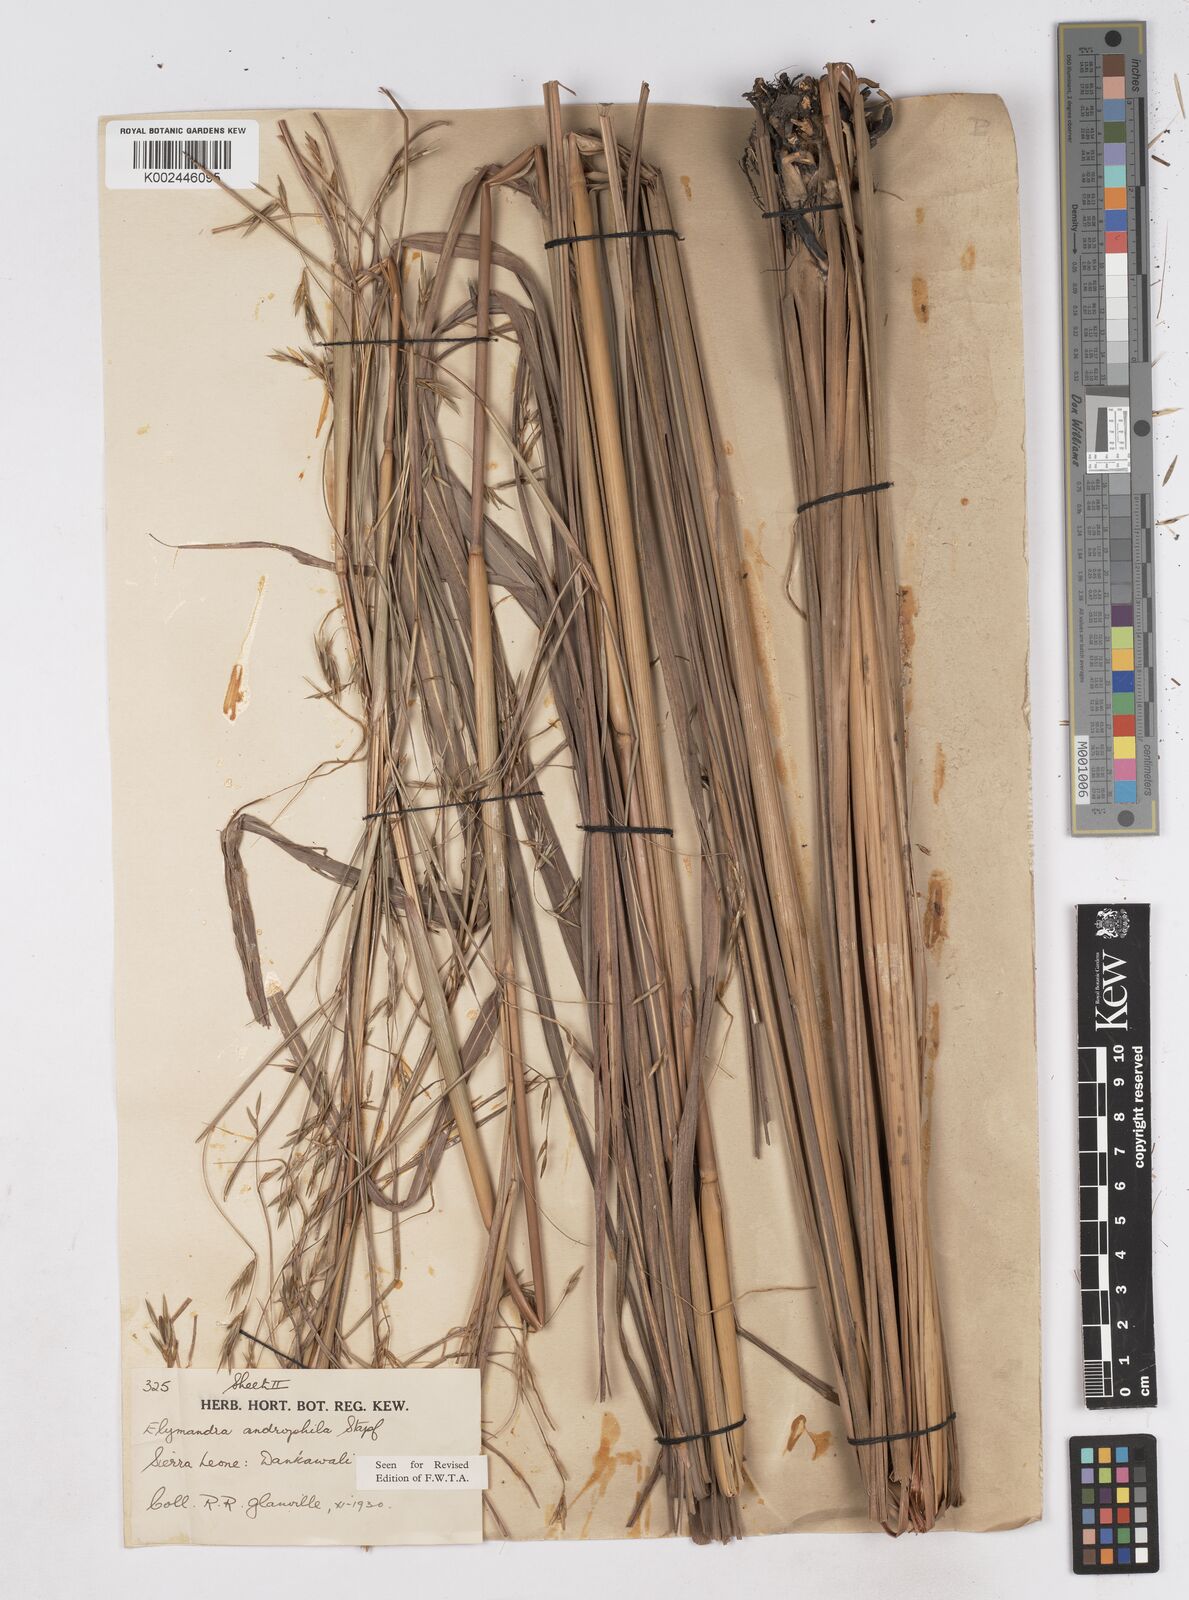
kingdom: Plantae
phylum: Tracheophyta
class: Liliopsida
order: Poales
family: Poaceae
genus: Elymandra
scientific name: Elymandra androphila
